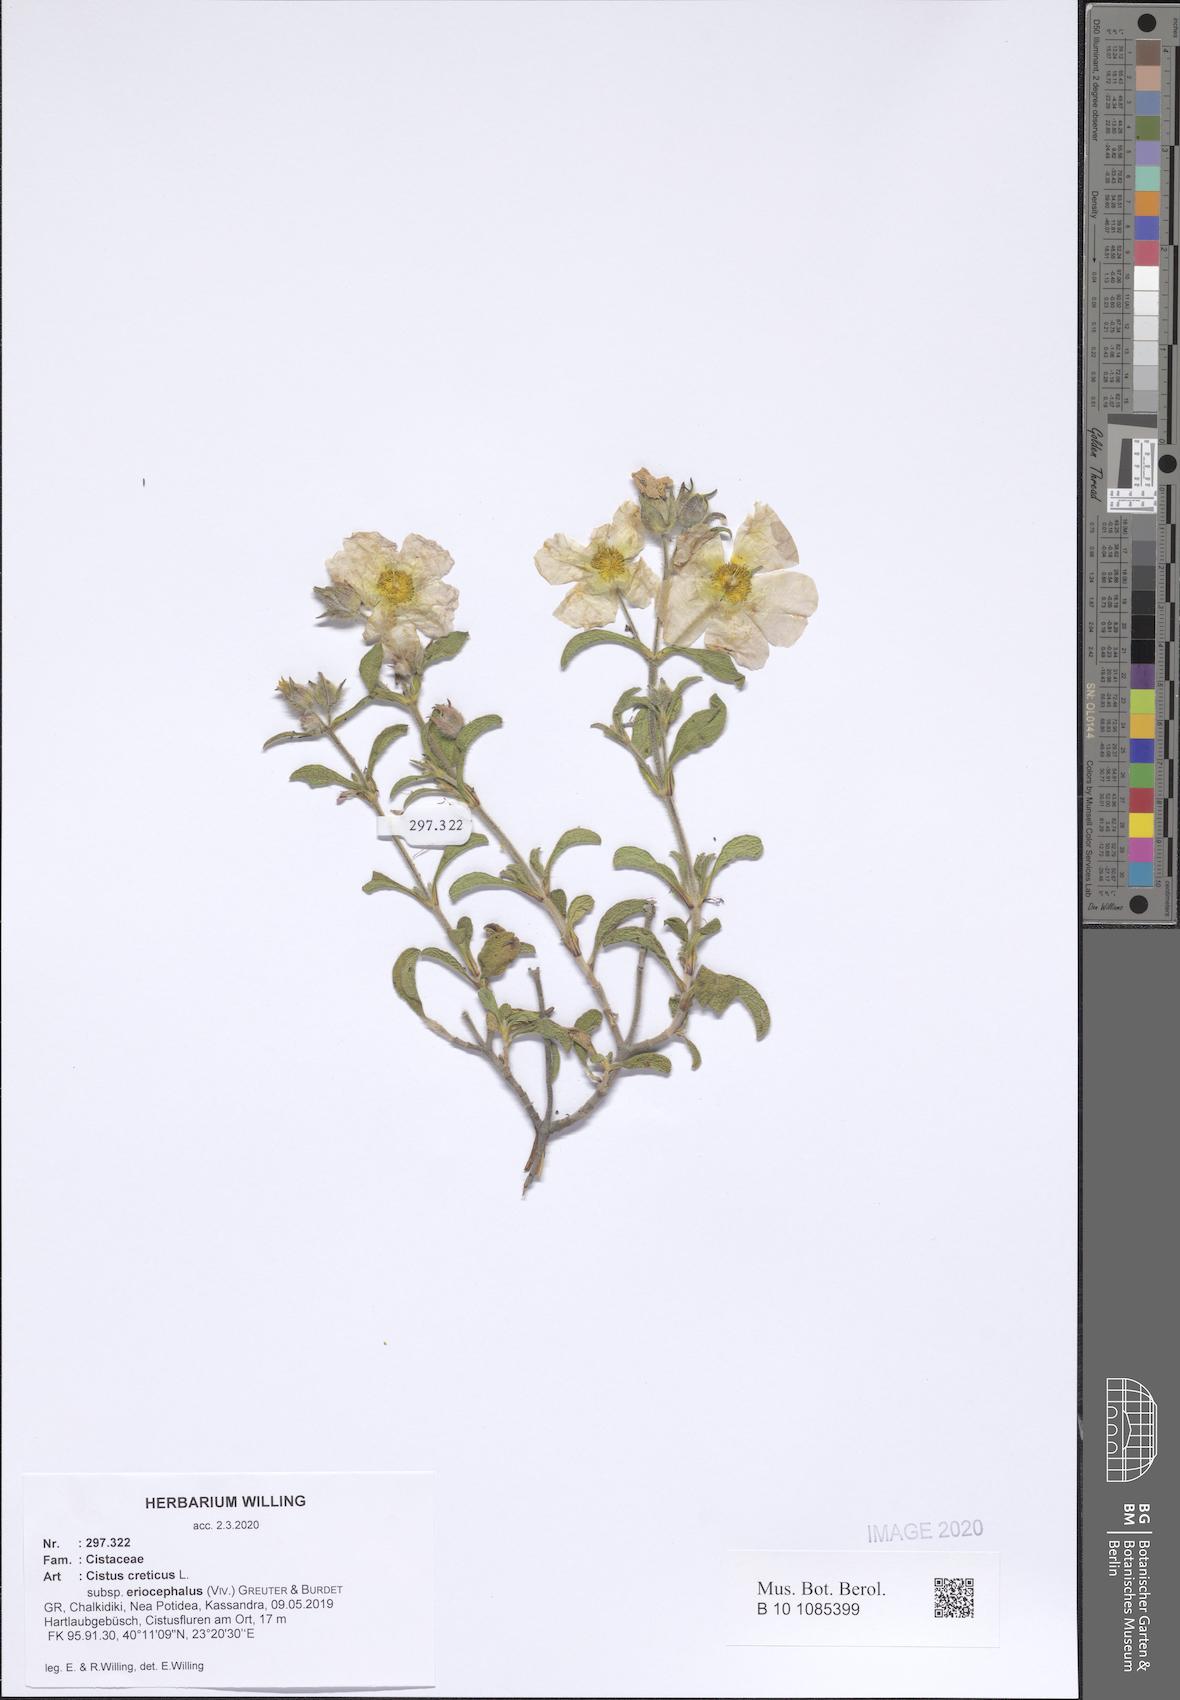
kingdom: Plantae
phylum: Tracheophyta
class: Magnoliopsida
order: Malvales
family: Cistaceae
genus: Cistus
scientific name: Cistus tauricus
